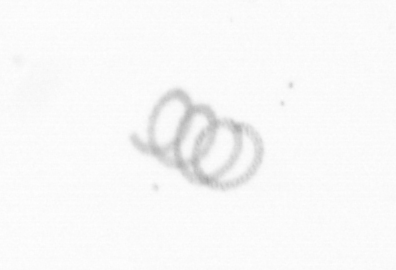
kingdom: Chromista
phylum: Ochrophyta
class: Bacillariophyceae
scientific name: Bacillariophyceae
